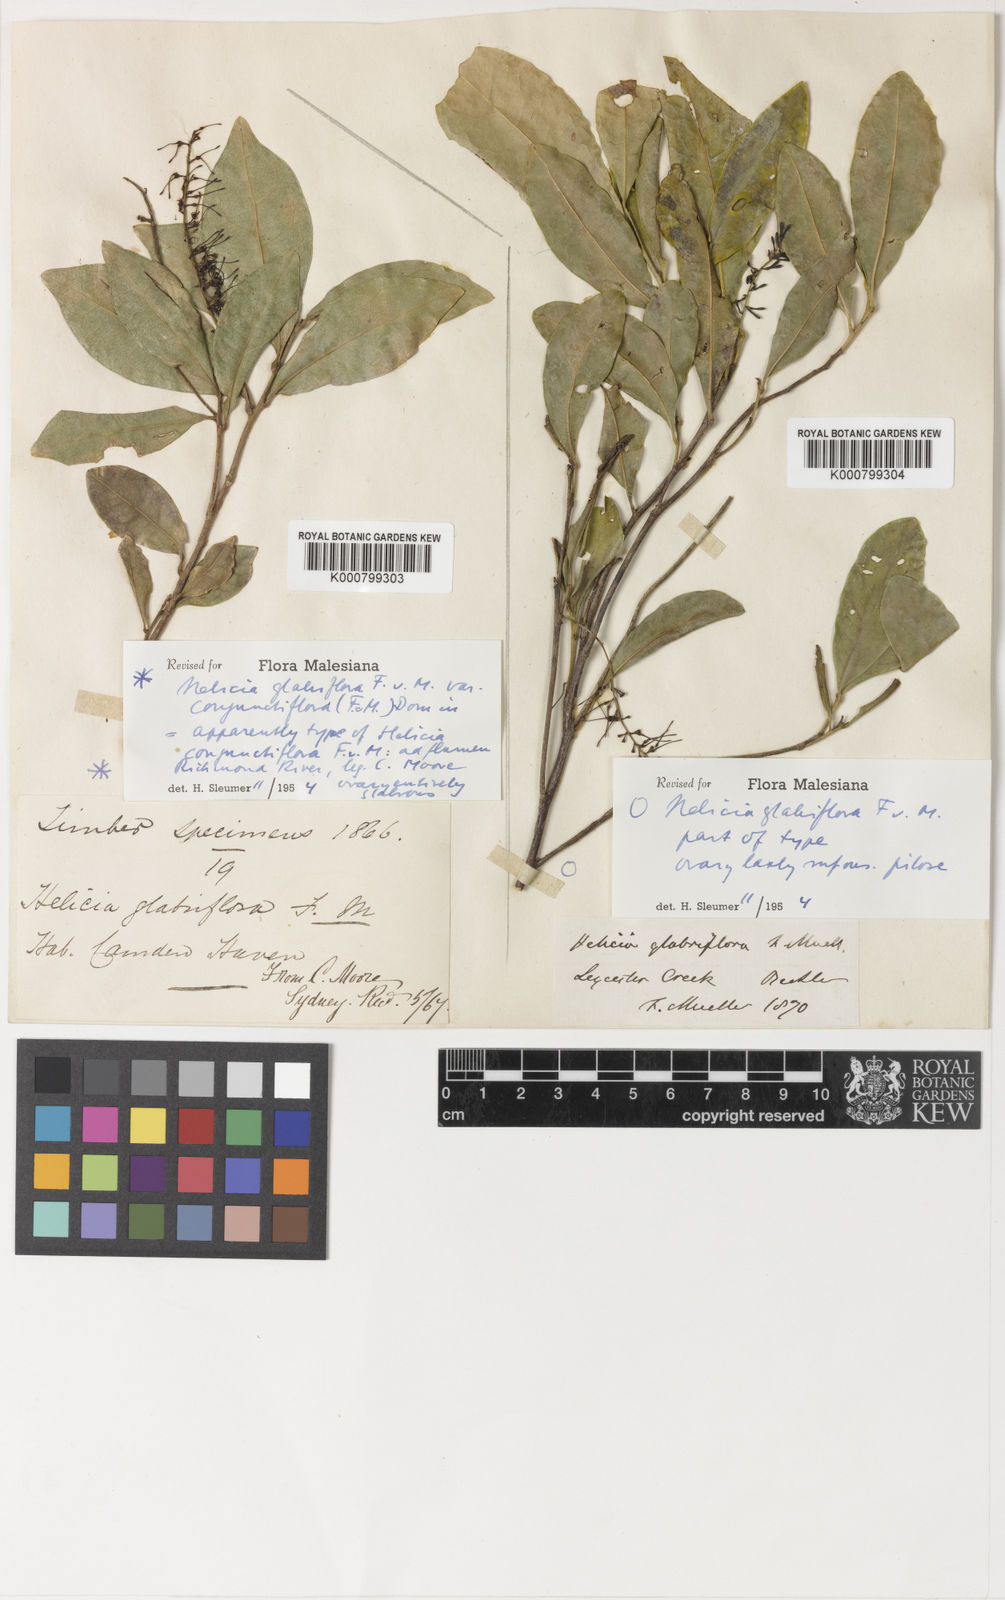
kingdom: Plantae
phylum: Tracheophyta
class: Magnoliopsida
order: Proteales
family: Proteaceae
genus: Helicia
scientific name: Helicia glabriflora
